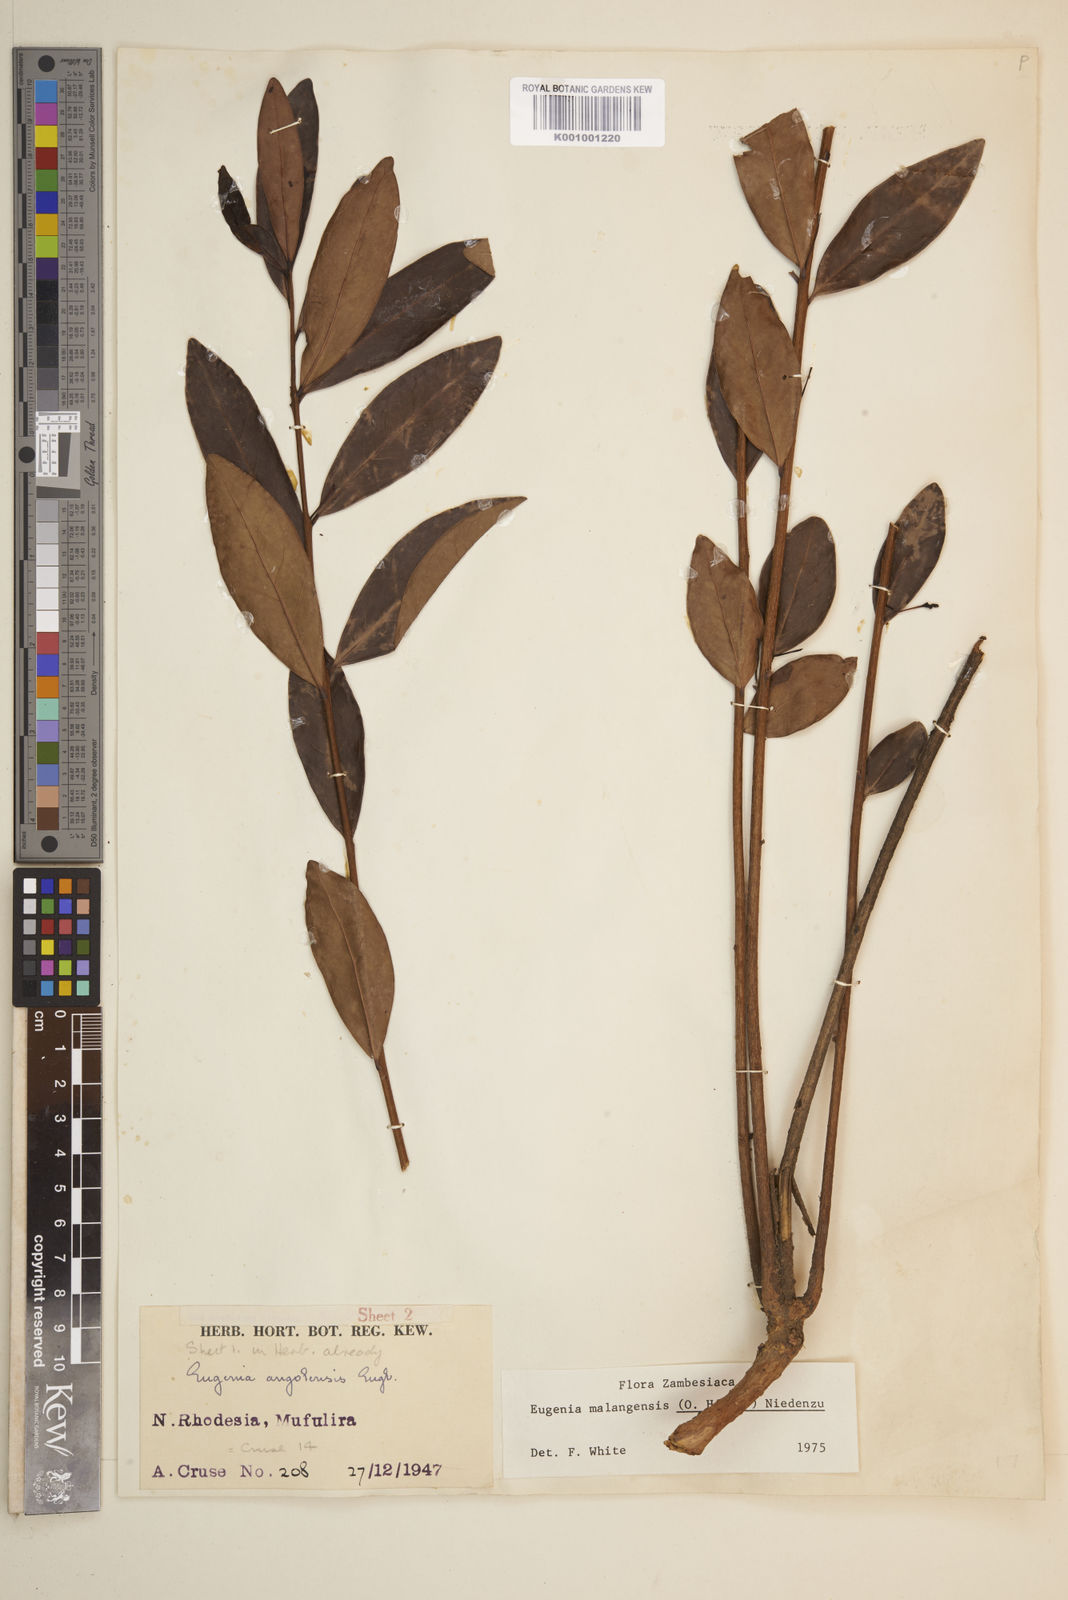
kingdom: Plantae
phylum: Tracheophyta
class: Magnoliopsida
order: Myrtales
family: Myrtaceae
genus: Eugenia
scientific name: Eugenia malangensis
